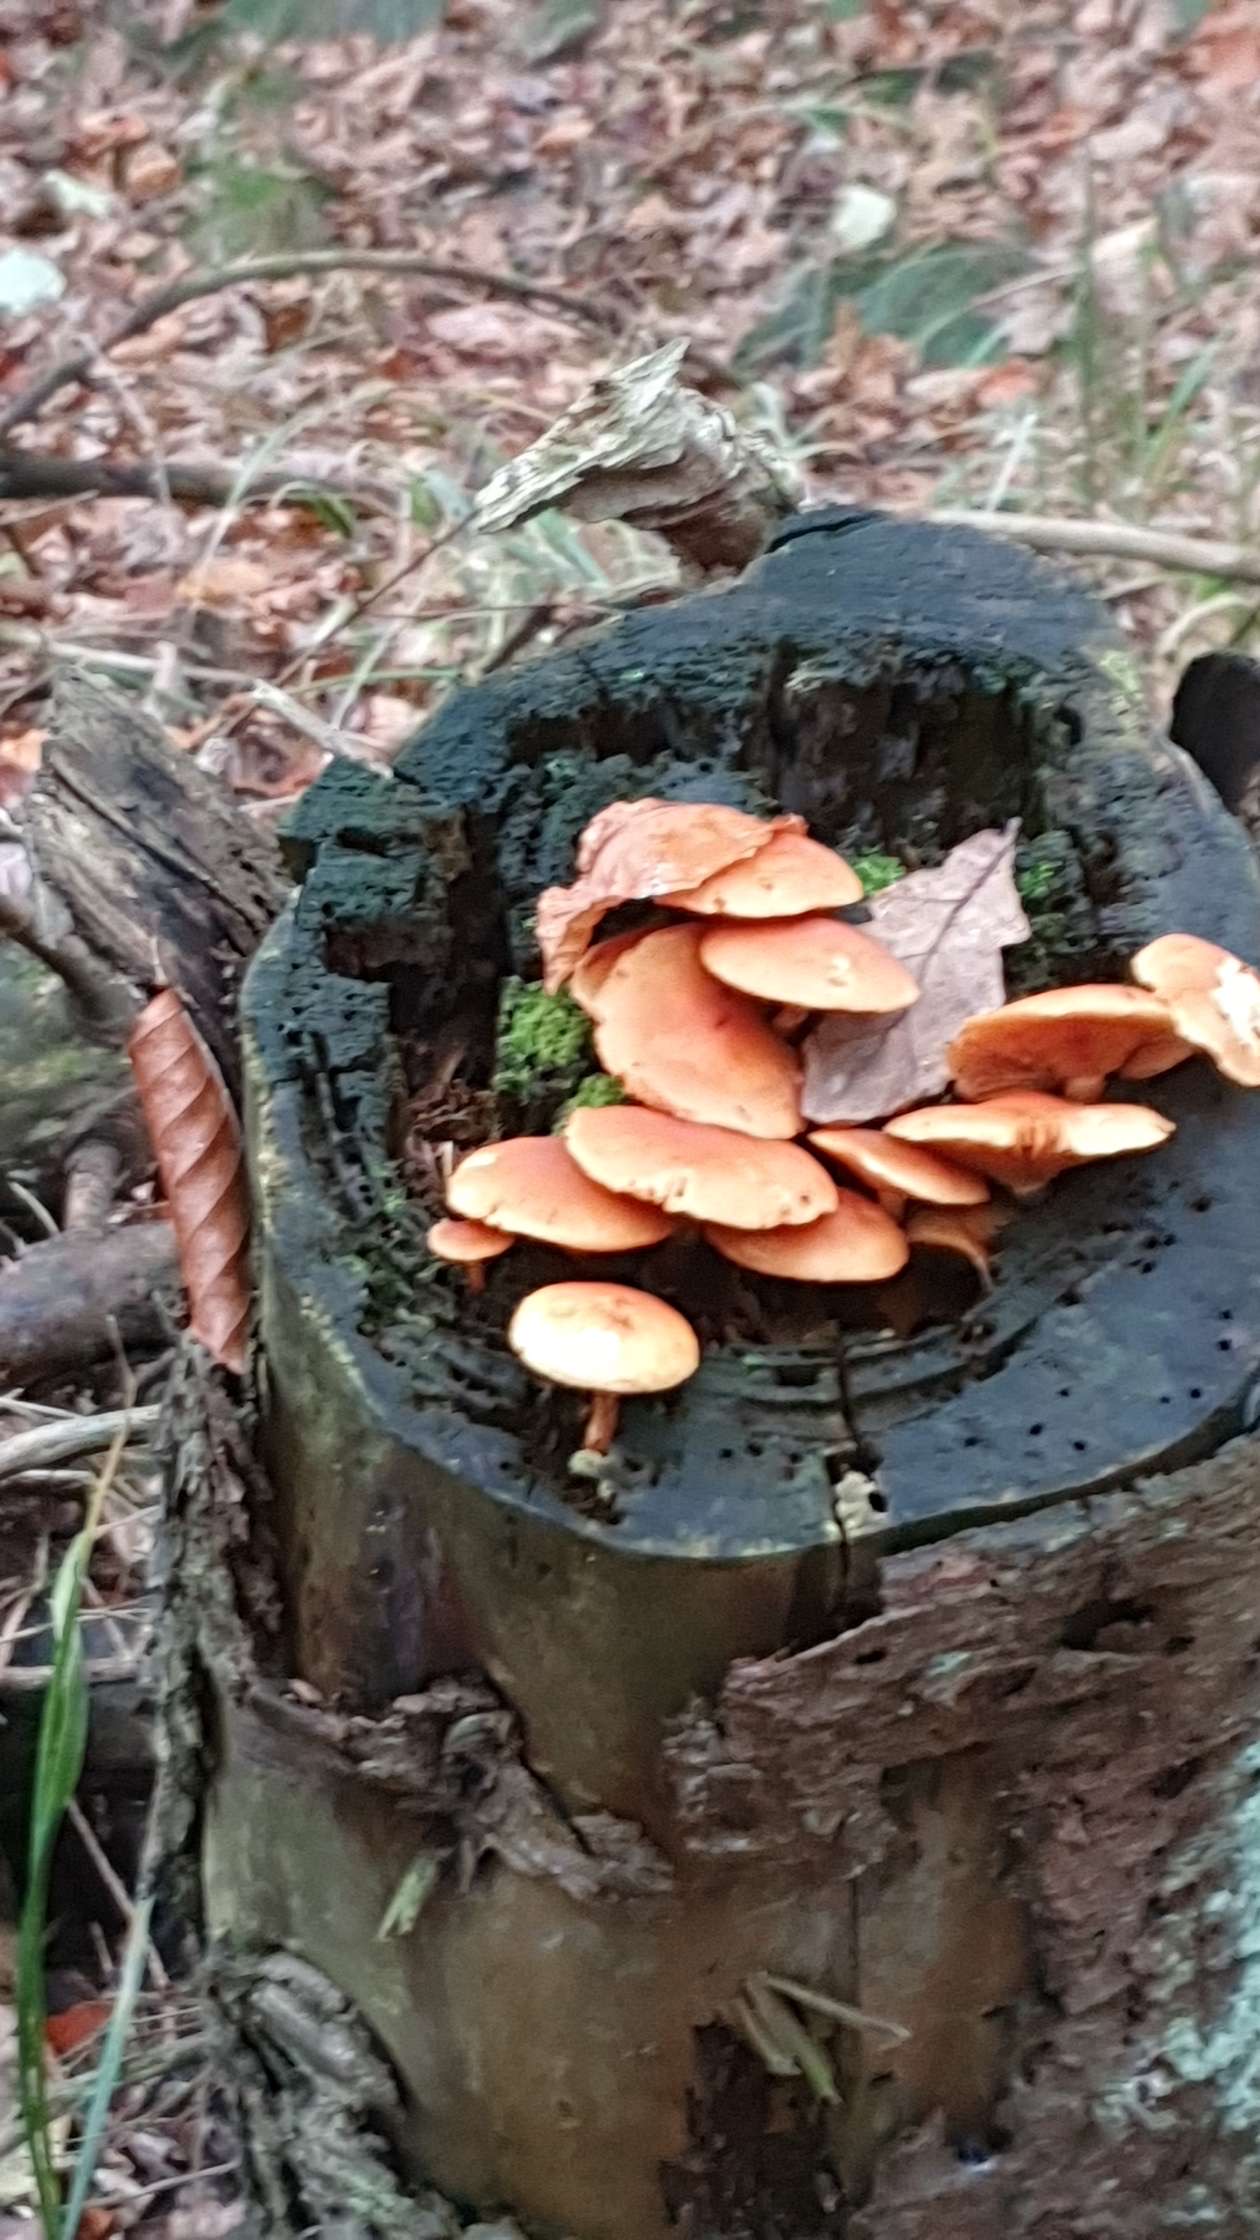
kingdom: Fungi
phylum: Basidiomycota
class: Agaricomycetes
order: Agaricales
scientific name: Agaricales
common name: champignonordenen
